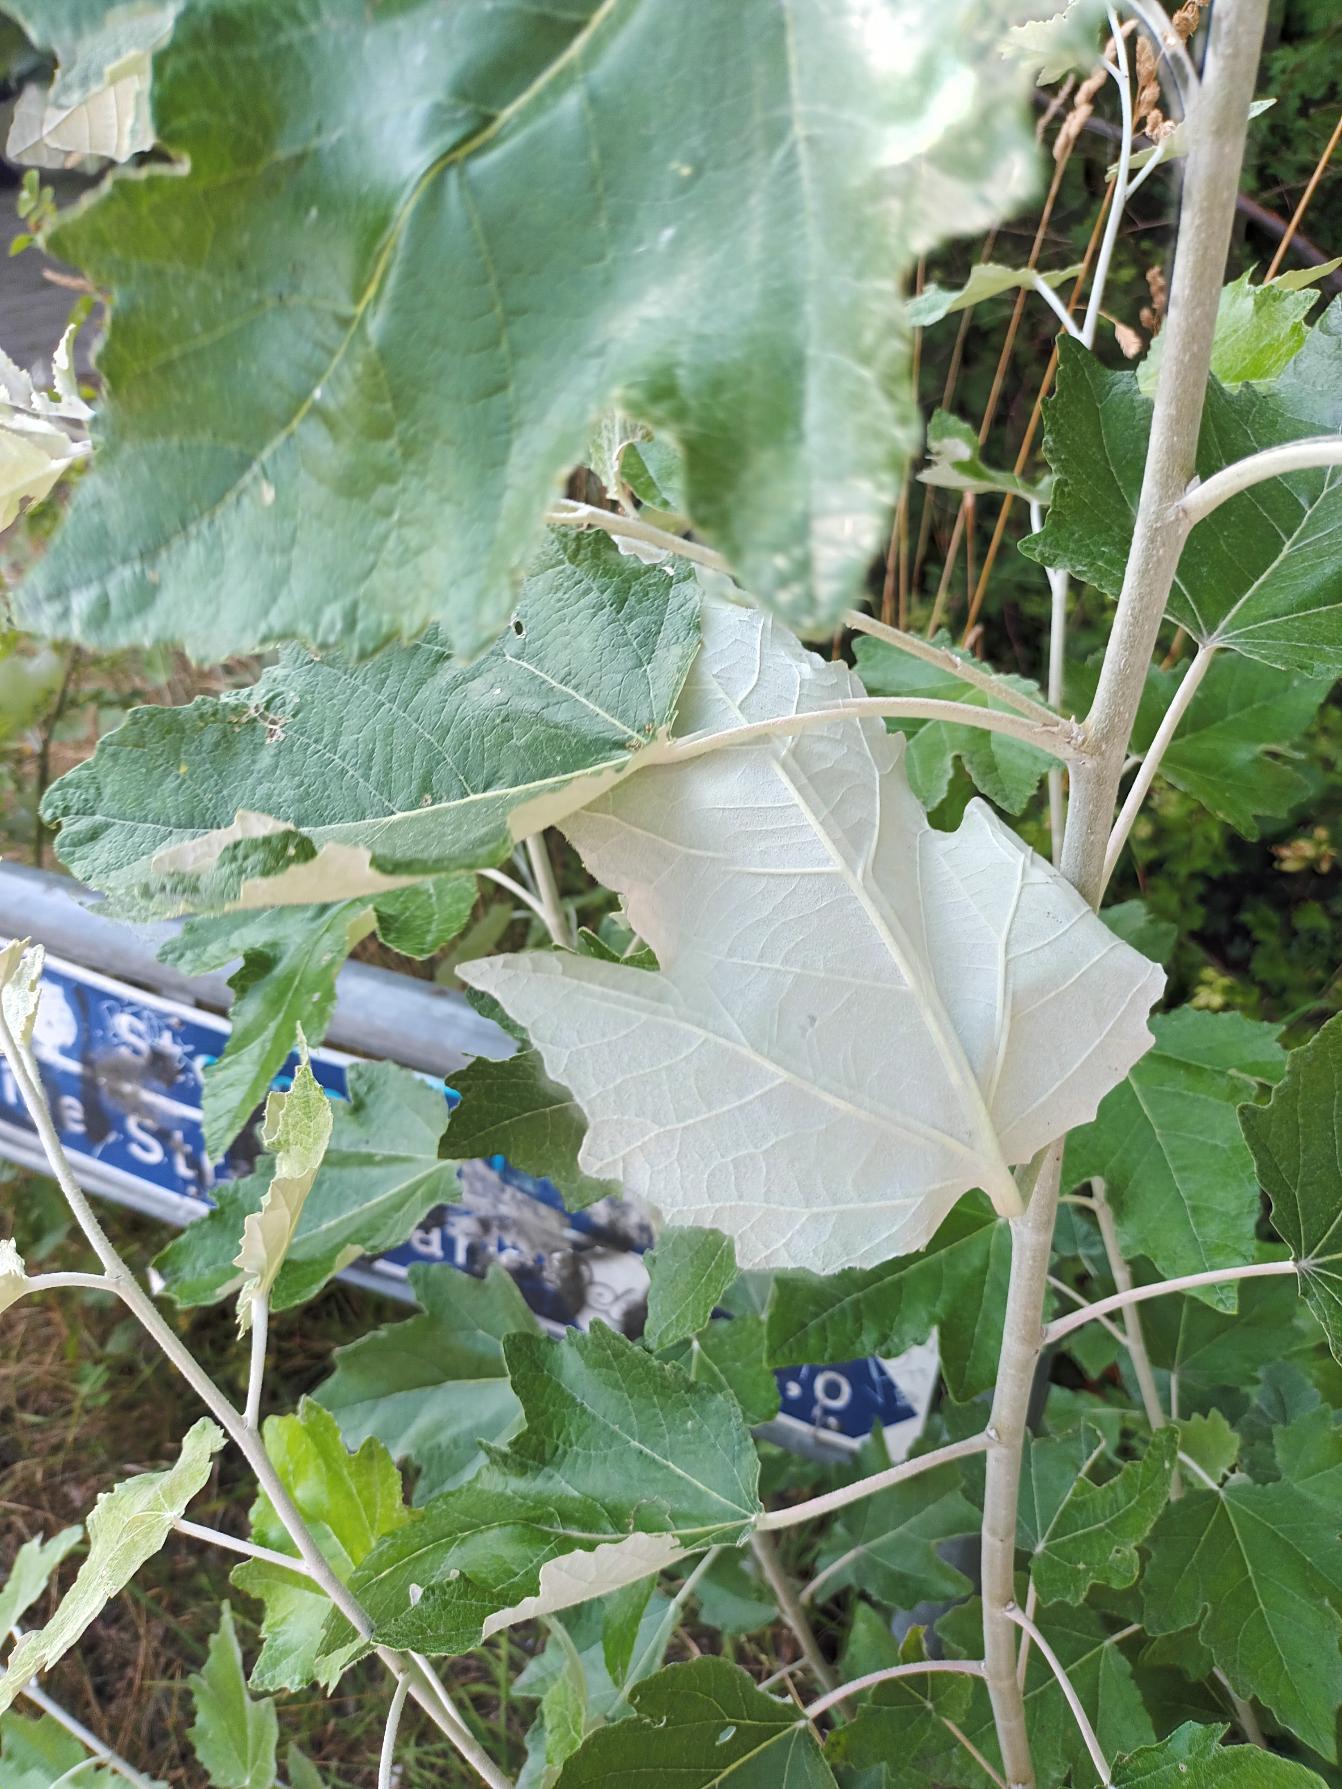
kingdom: Plantae
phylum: Tracheophyta
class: Magnoliopsida
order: Malpighiales
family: Salicaceae
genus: Populus
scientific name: Populus alba
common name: Sølv-poppel
